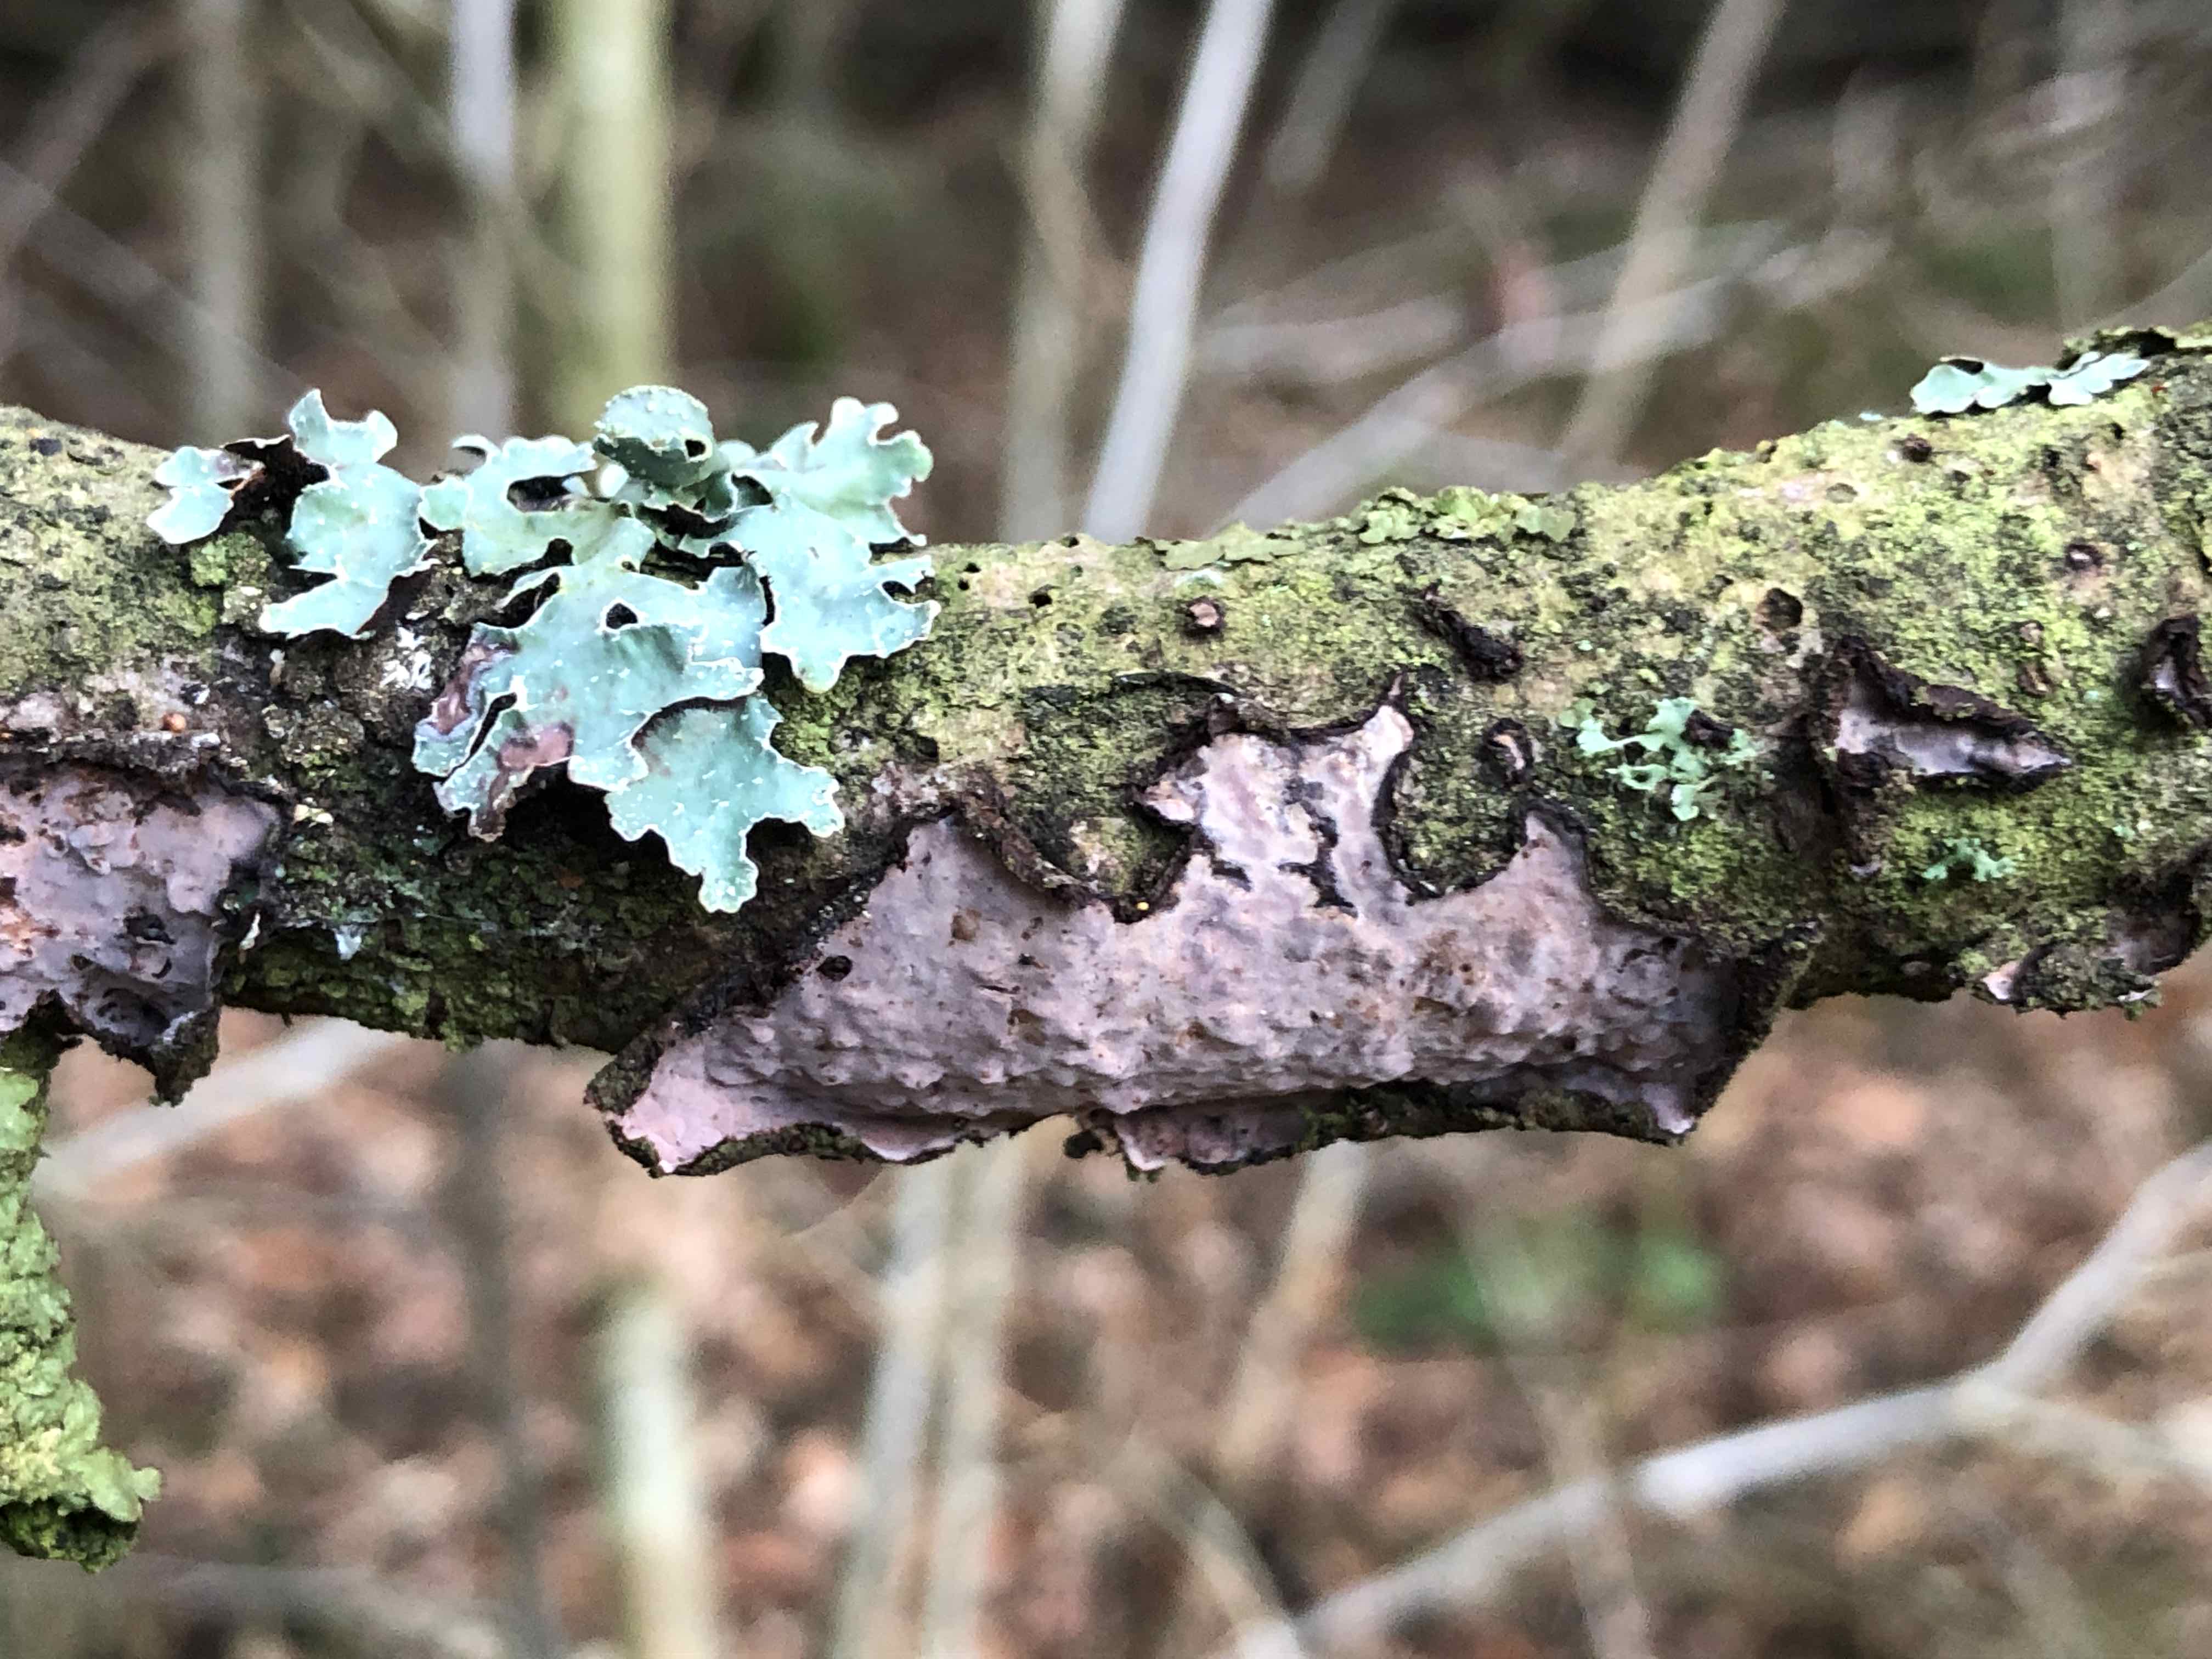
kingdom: Fungi
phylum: Basidiomycota
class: Agaricomycetes
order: Russulales
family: Peniophoraceae
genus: Peniophora
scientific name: Peniophora quercina
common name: ege-voksskind
